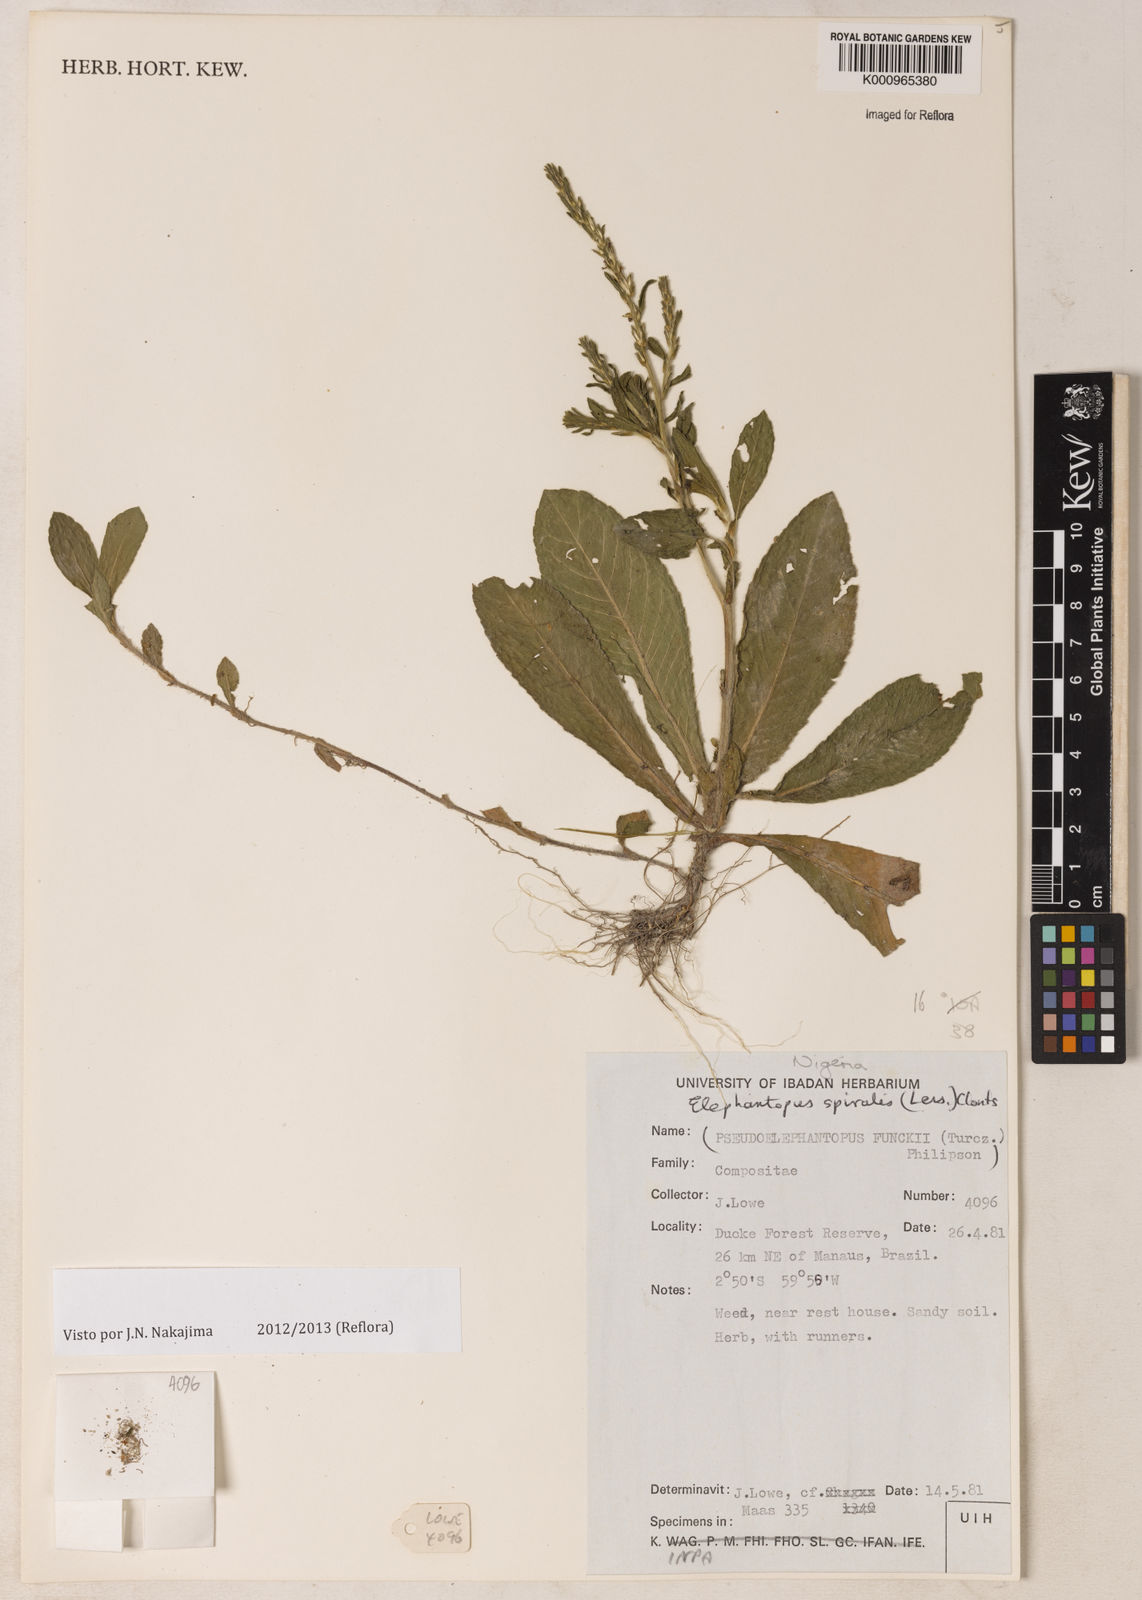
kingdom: Plantae
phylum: Tracheophyta
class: Magnoliopsida
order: Asterales
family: Asteraceae
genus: Pseudelephantopus
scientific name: Pseudelephantopus spiralis
